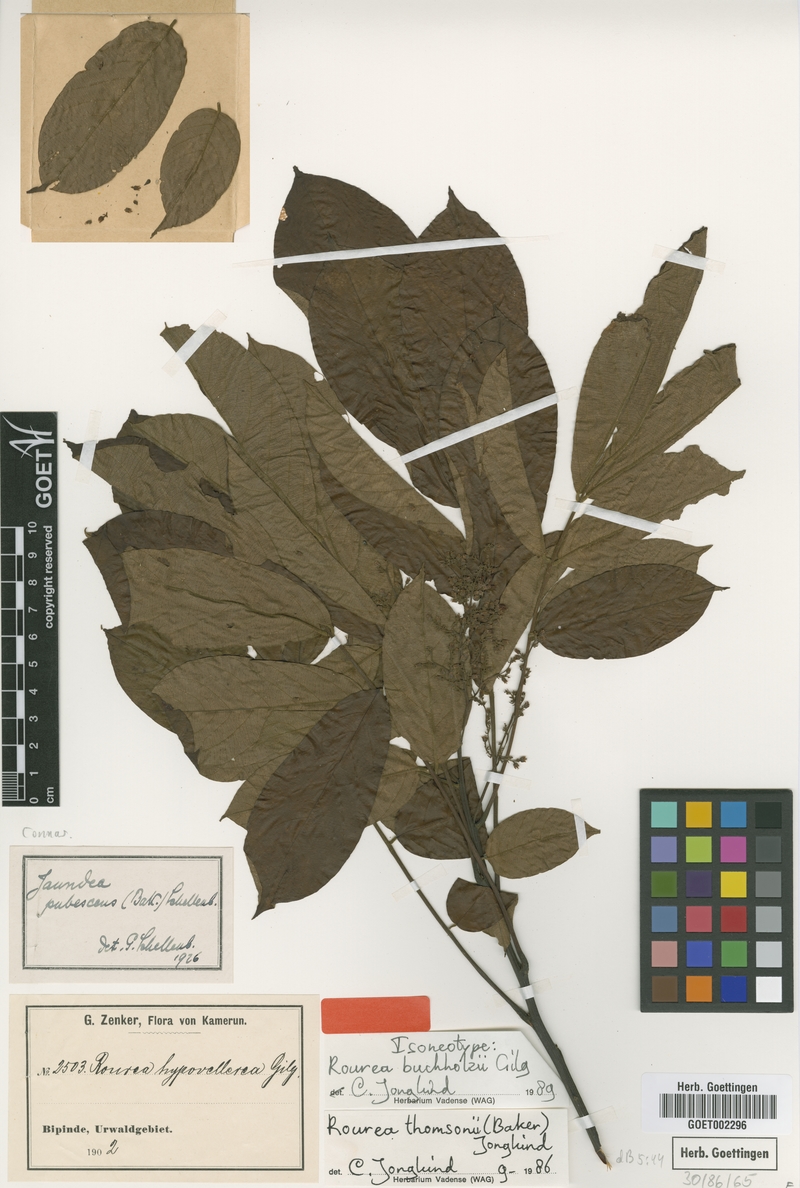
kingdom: Plantae
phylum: Tracheophyta
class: Magnoliopsida
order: Oxalidales
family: Connaraceae
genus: Rourea
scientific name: Rourea thomsonii
